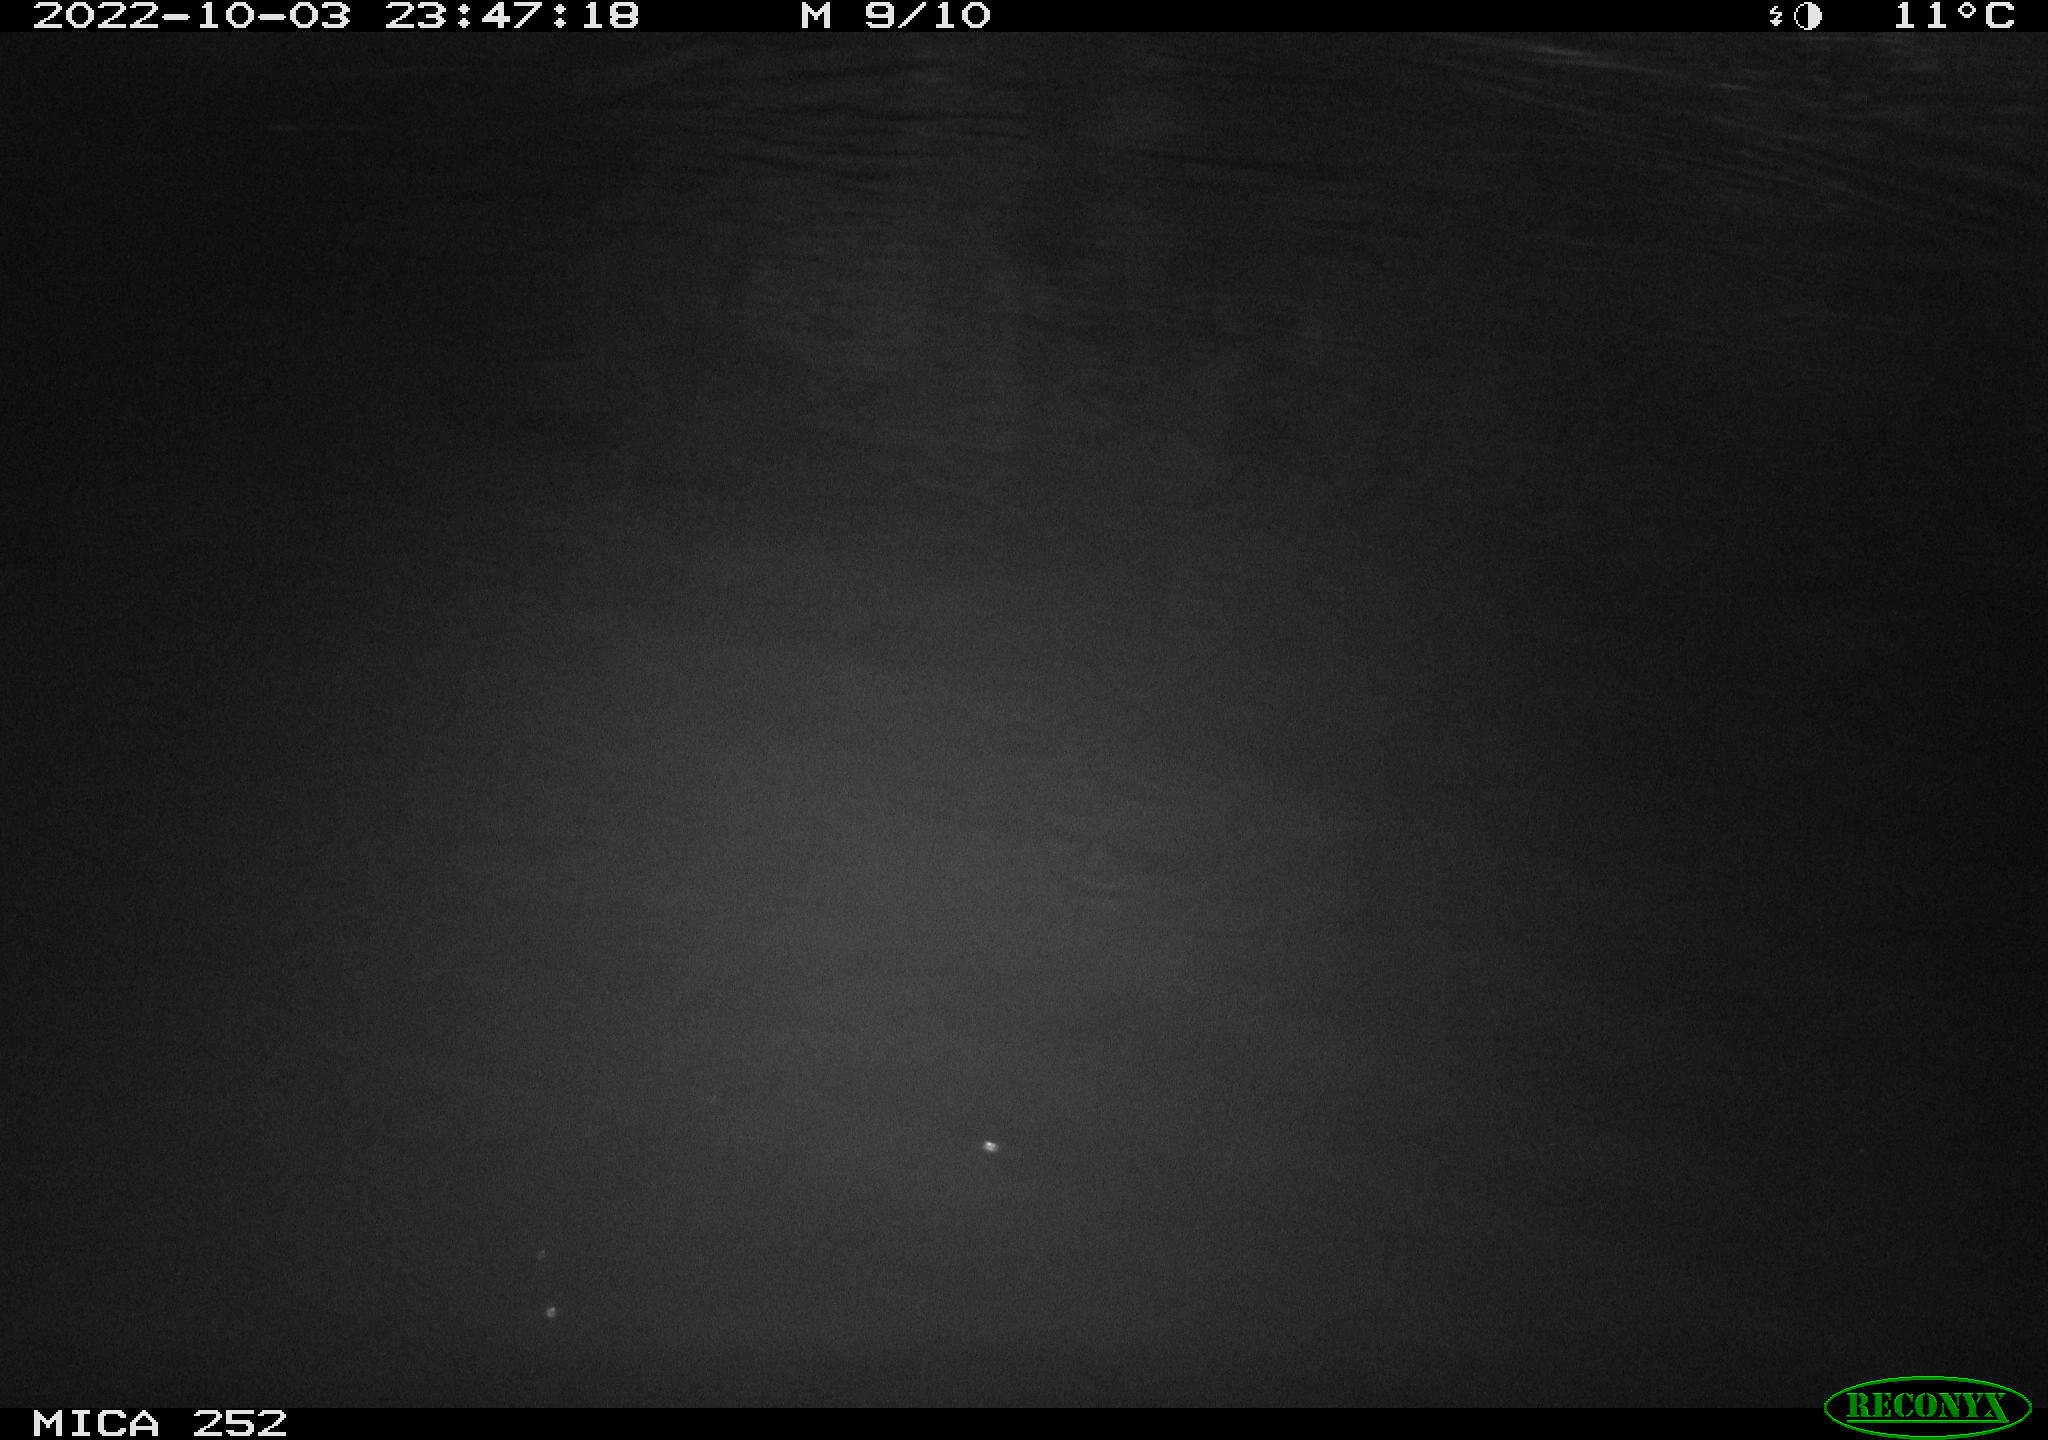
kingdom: Animalia
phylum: Chordata
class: Mammalia
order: Rodentia
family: Castoridae
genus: Castor
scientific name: Castor fiber
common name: Eurasian beaver
